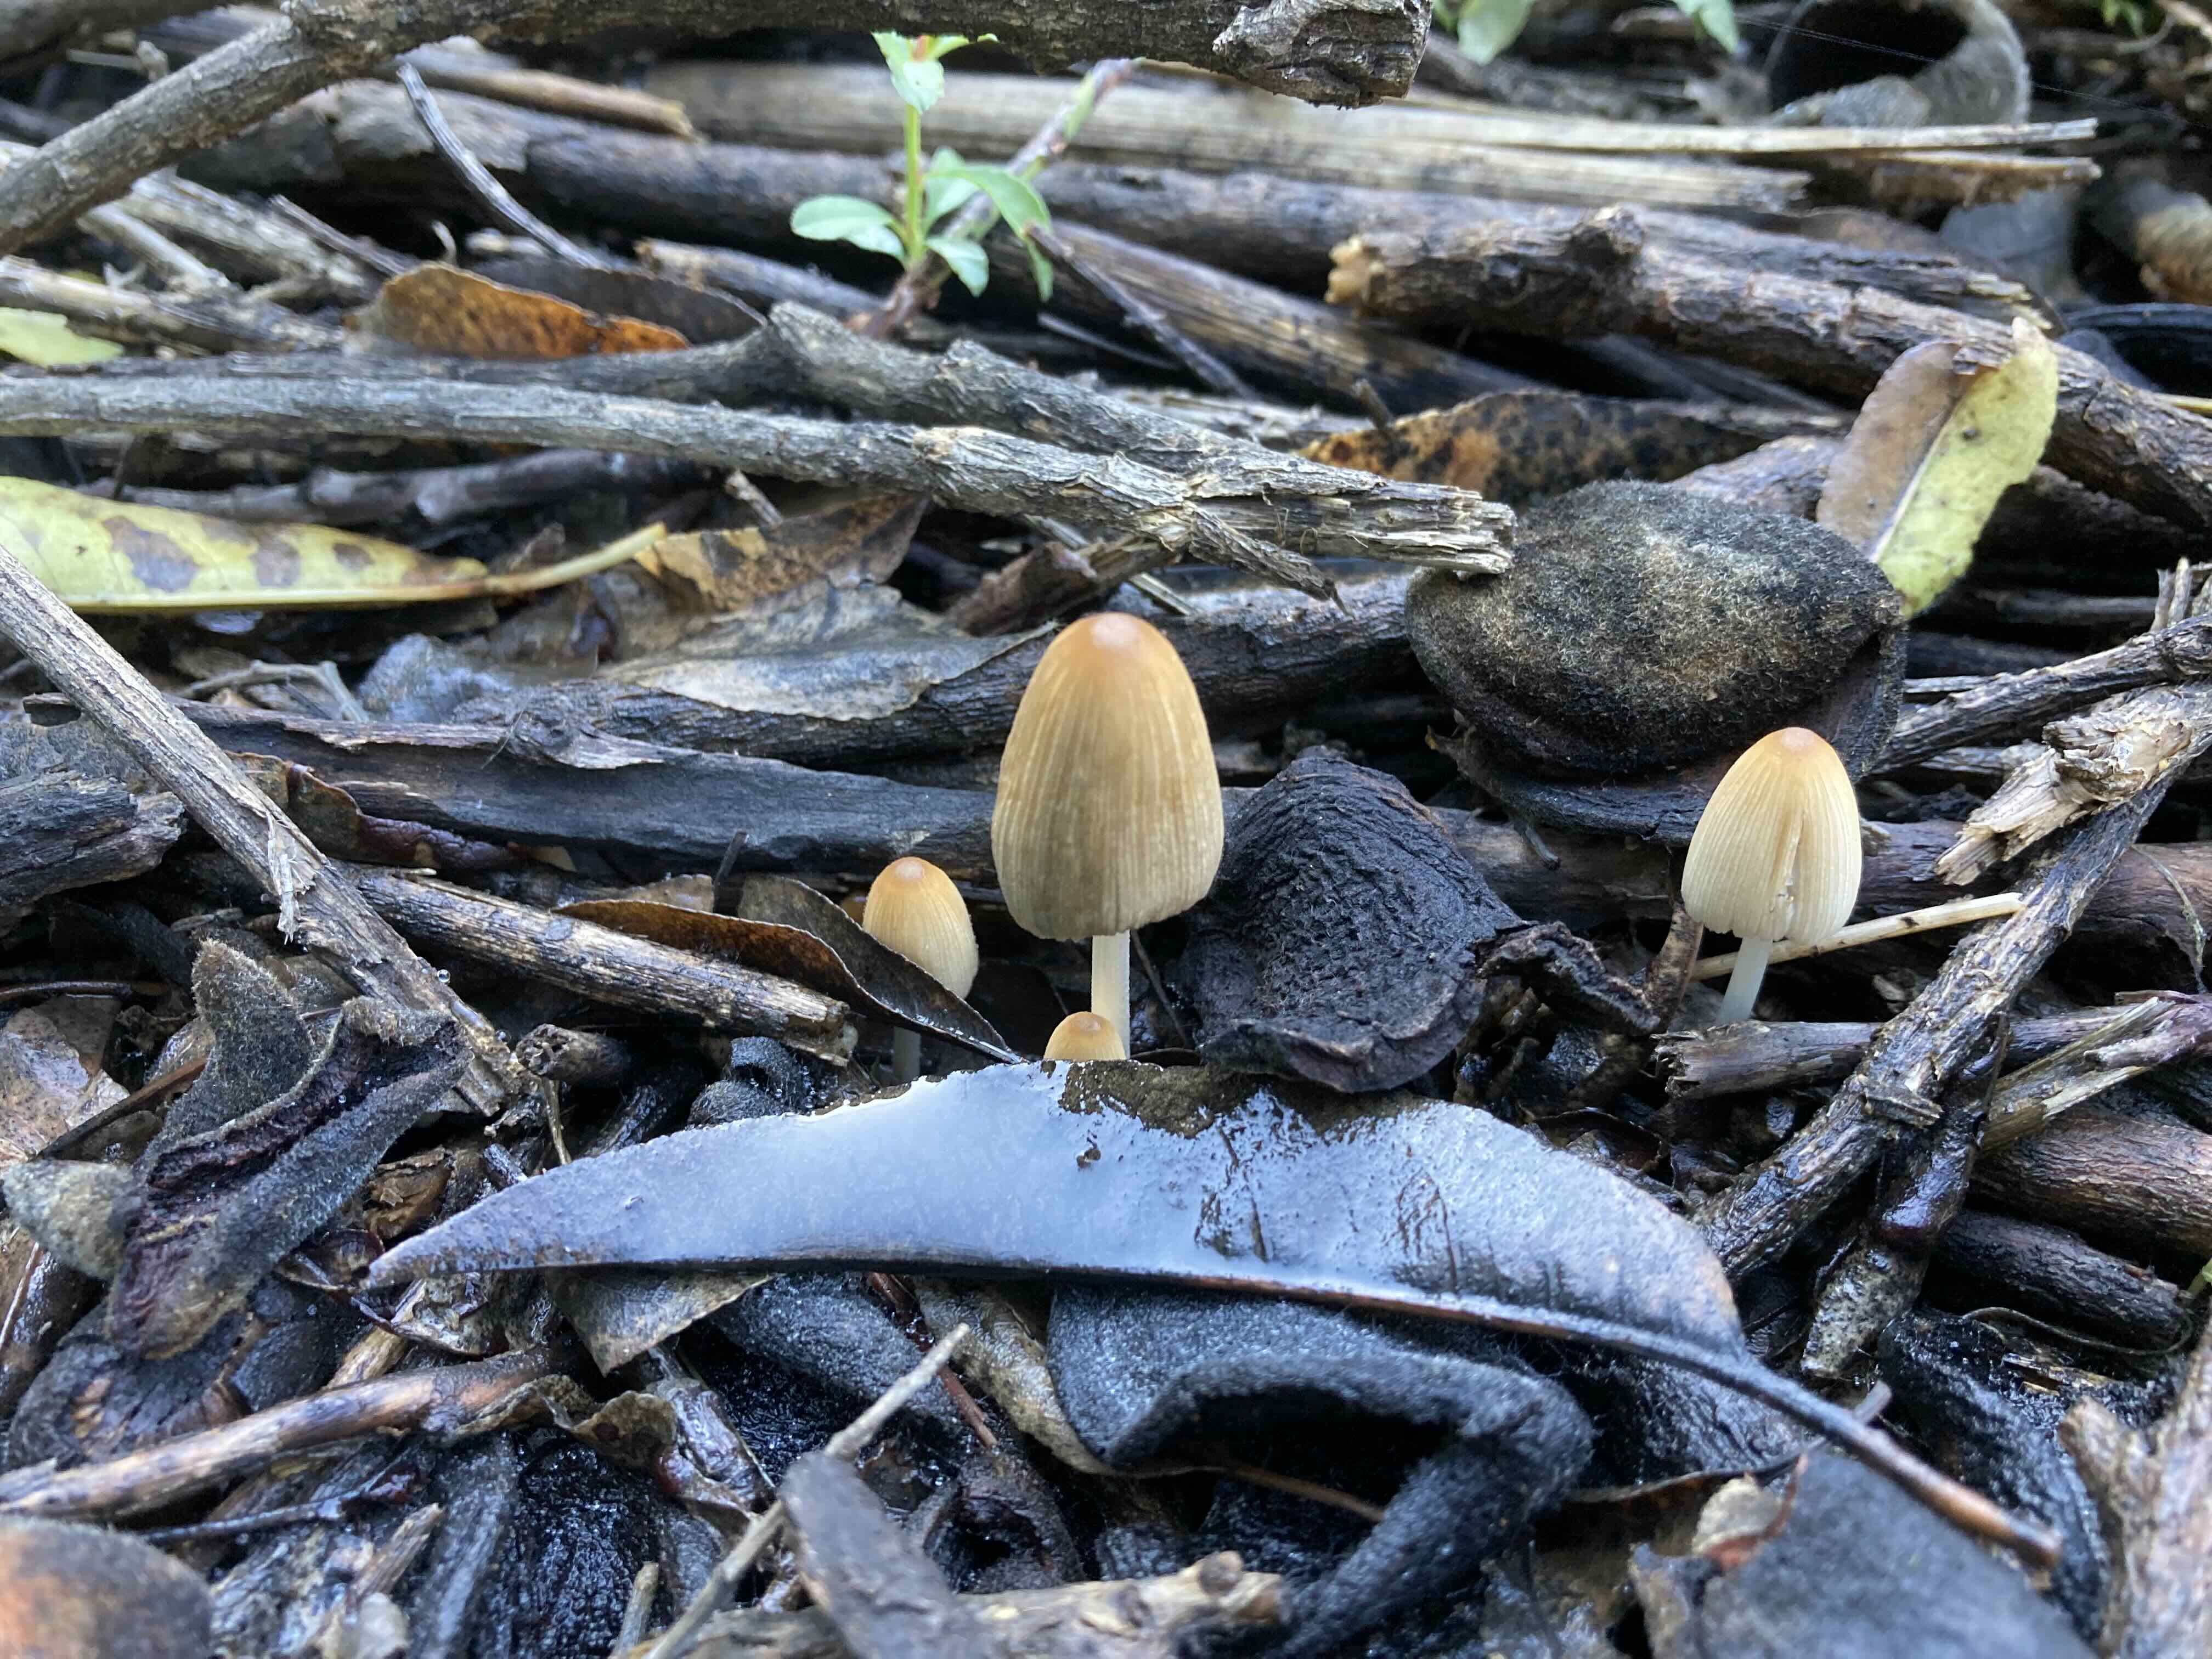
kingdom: Fungi
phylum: Basidiomycota
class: Agaricomycetes
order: Agaricales
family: Psathyrellaceae
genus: Coprinellus
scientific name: Coprinellus
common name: blækhat
